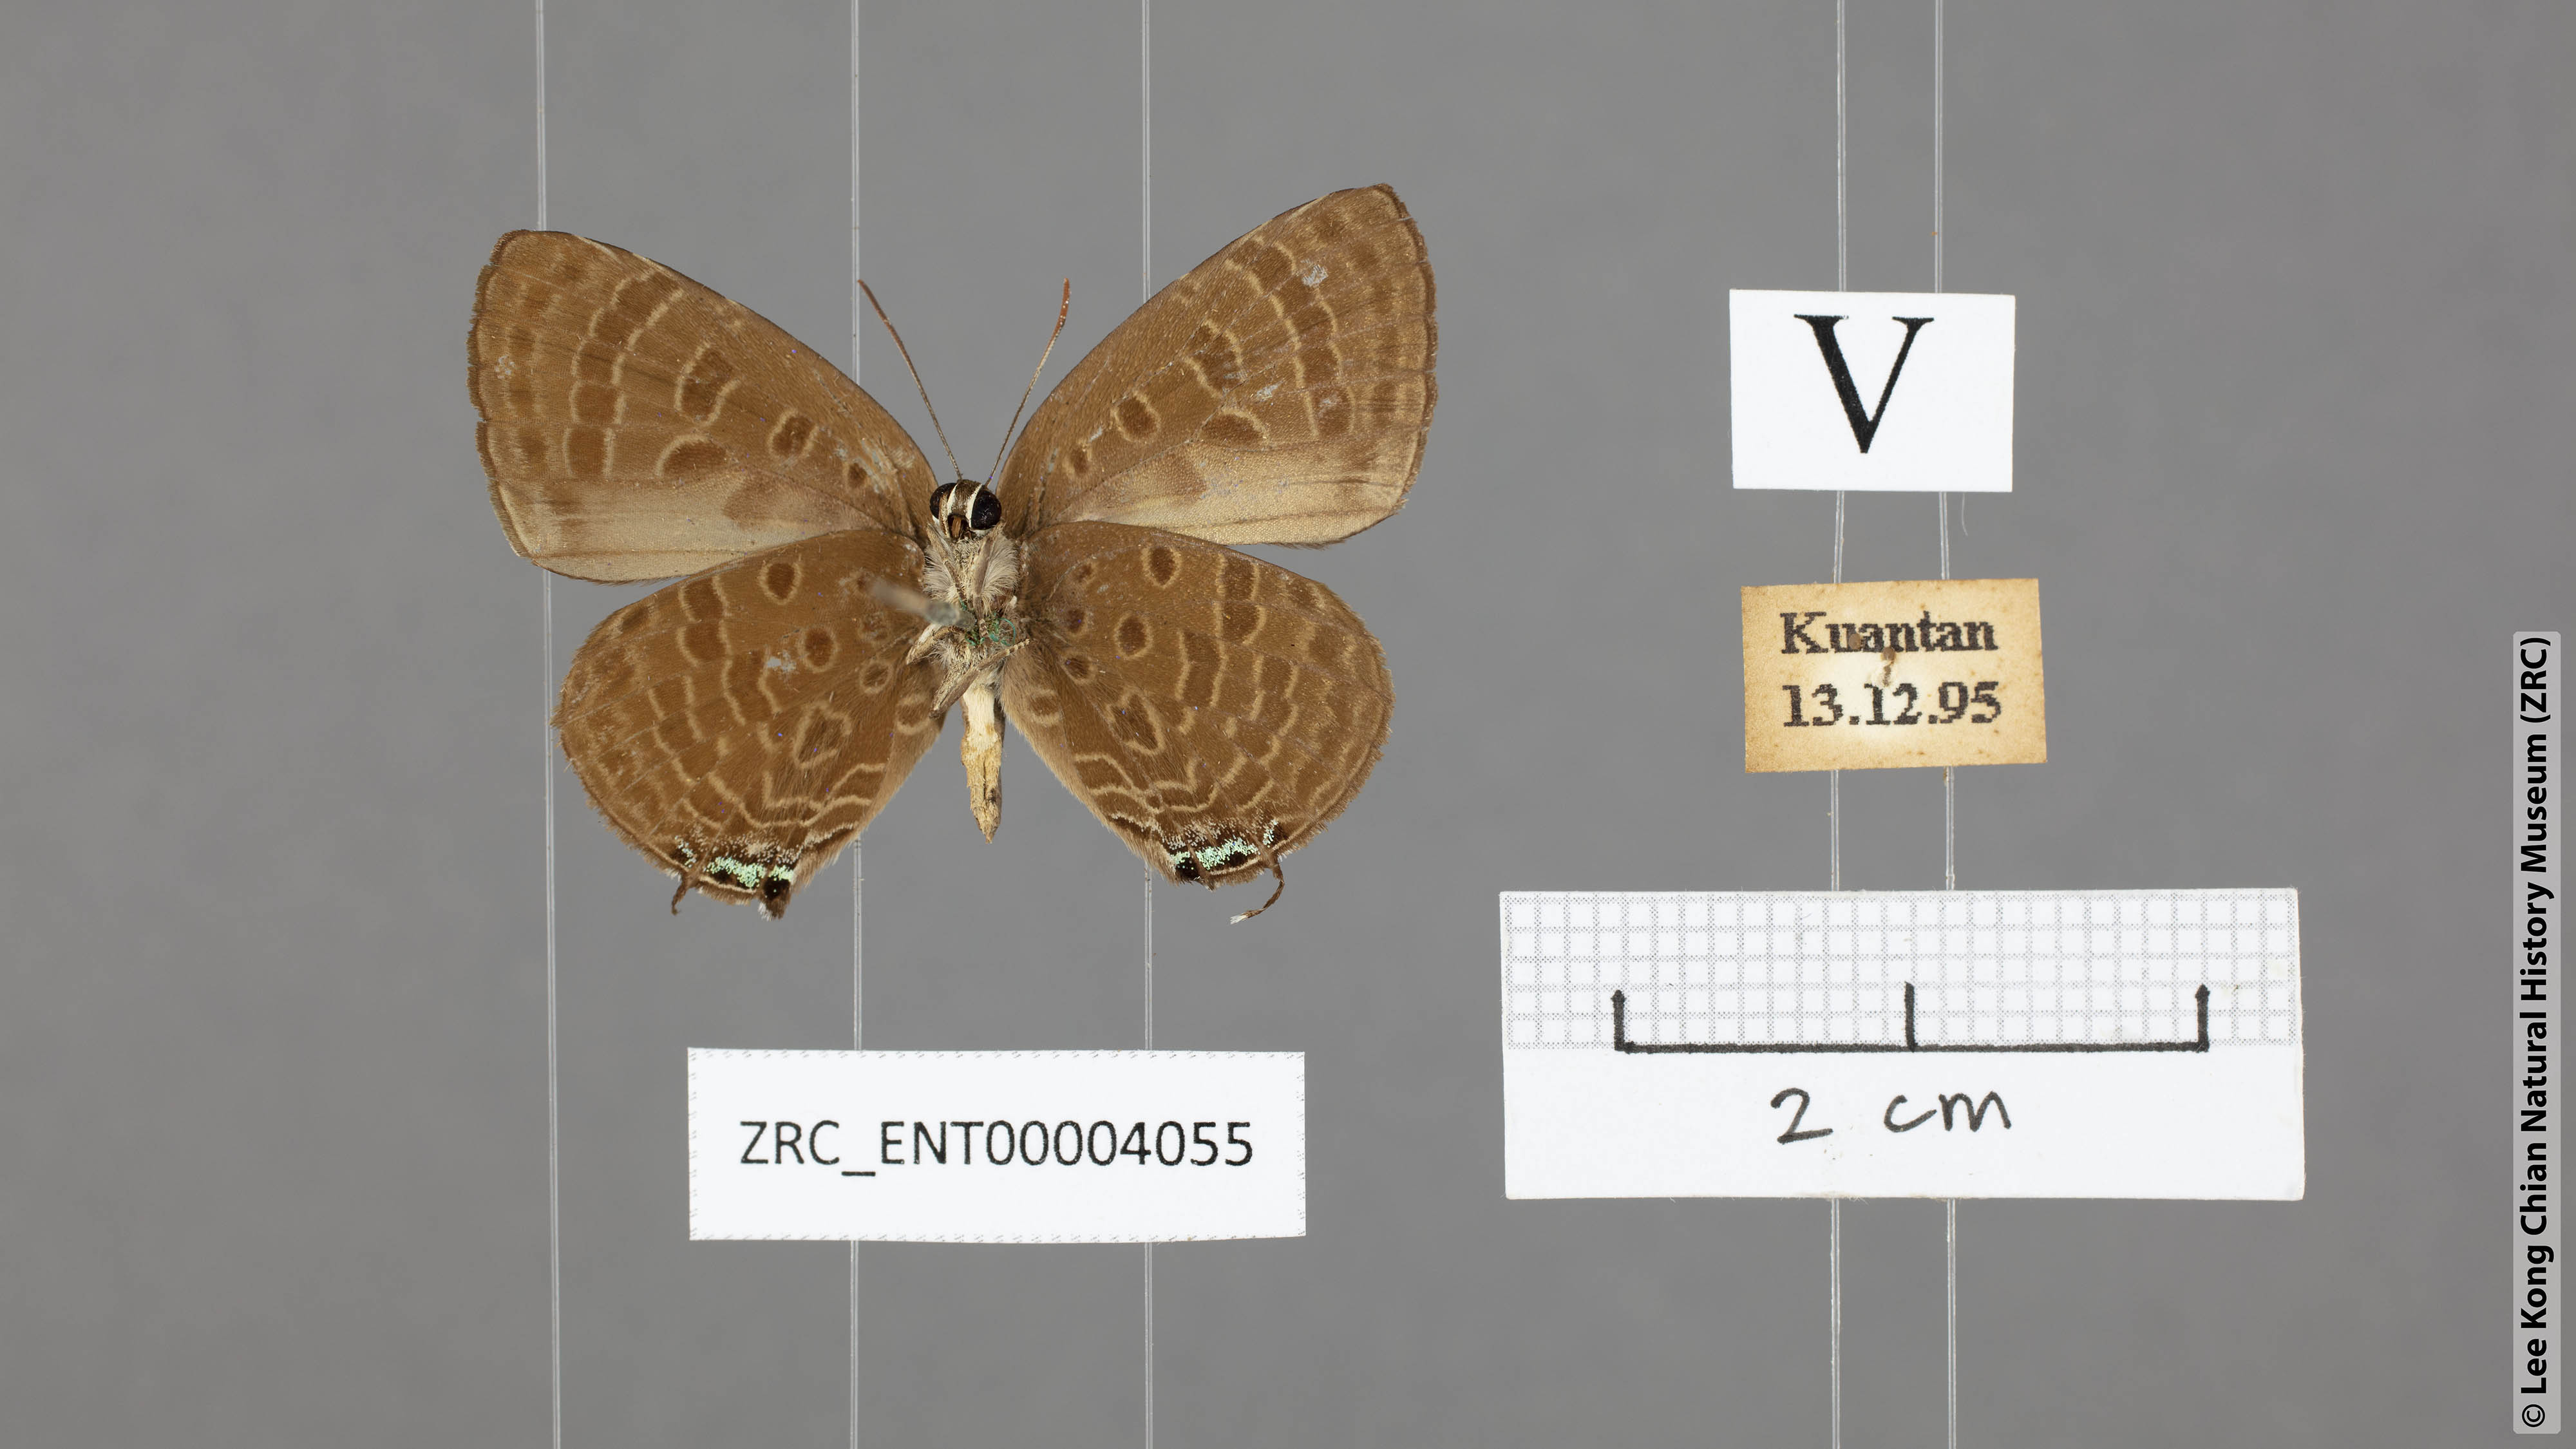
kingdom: Animalia
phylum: Arthropoda
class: Insecta
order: Lepidoptera
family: Lycaenidae
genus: Arhopala
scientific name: Arhopala sublustris
